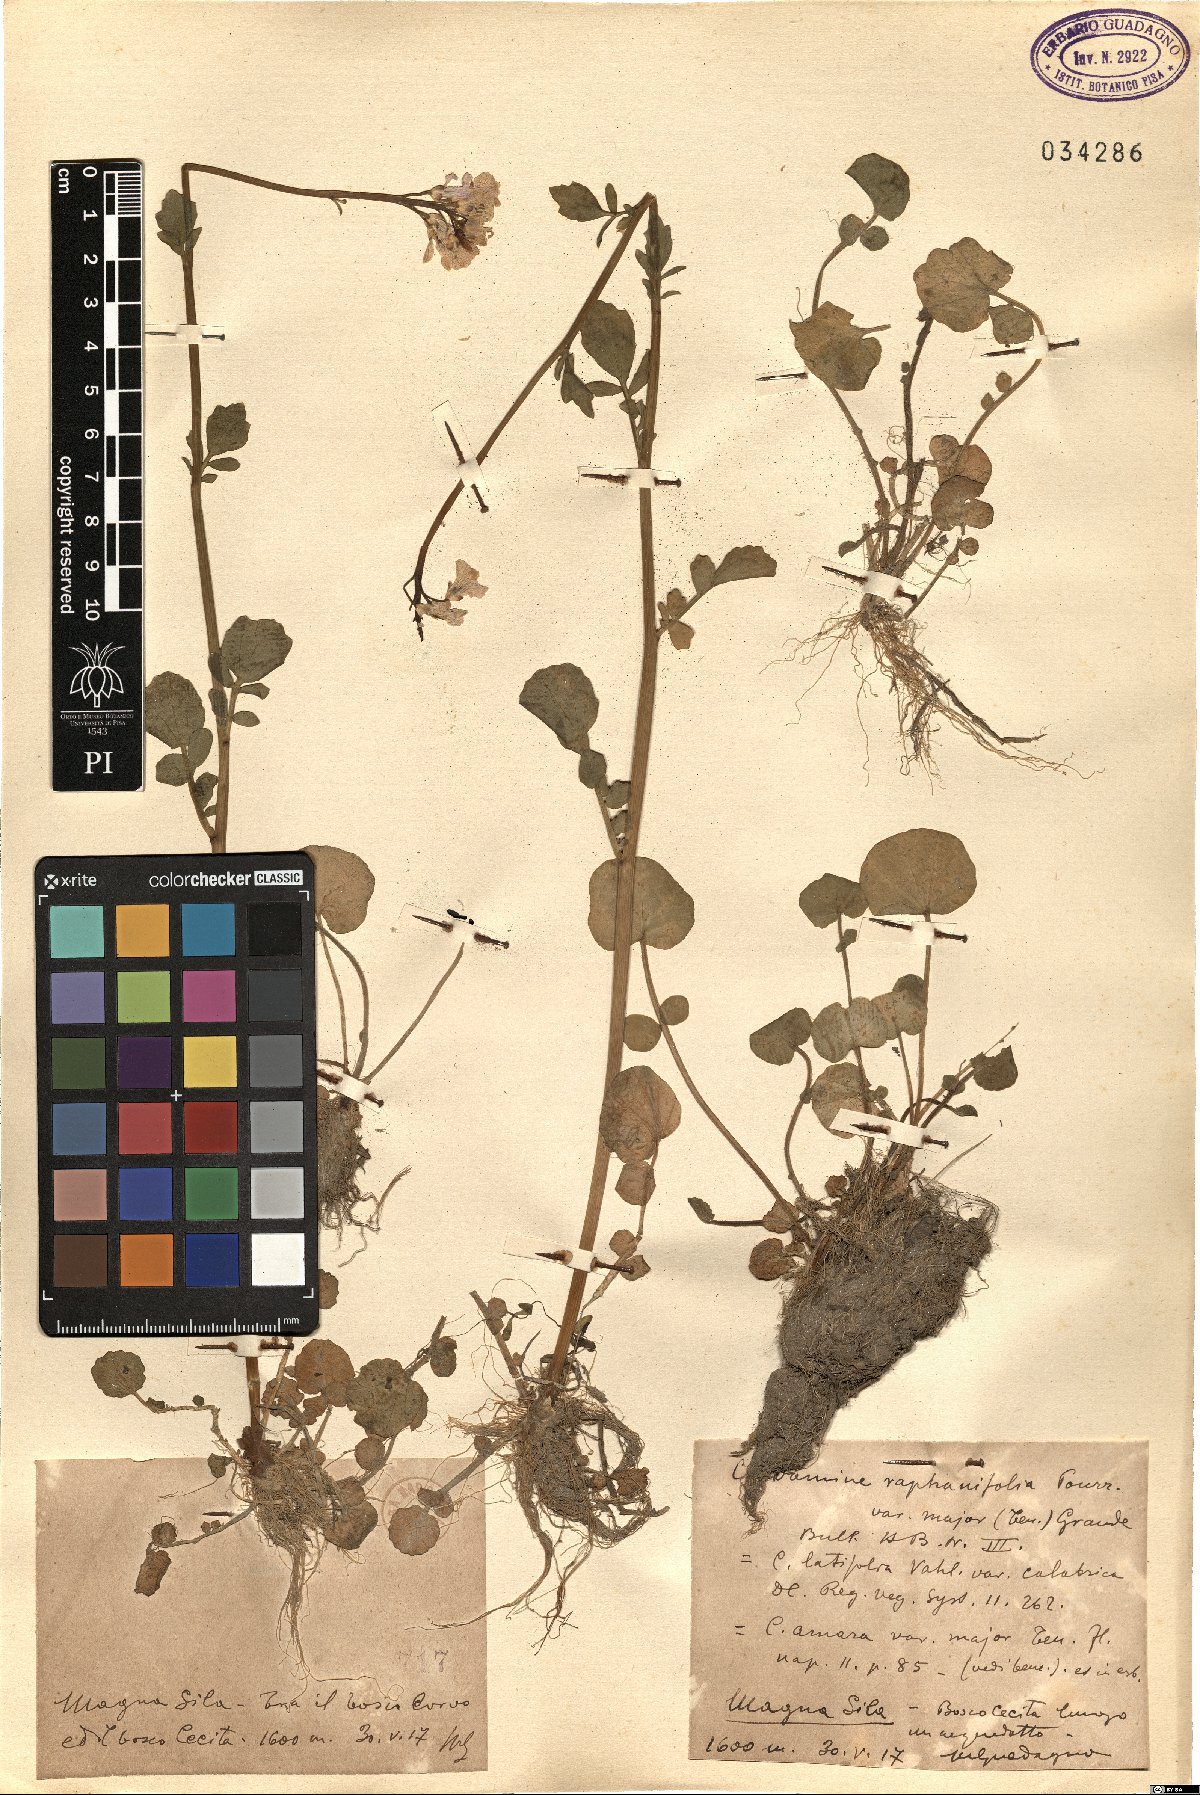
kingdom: Plantae
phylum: Tracheophyta
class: Magnoliopsida
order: Brassicales
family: Brassicaceae
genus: Cardamine
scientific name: Cardamine silana
